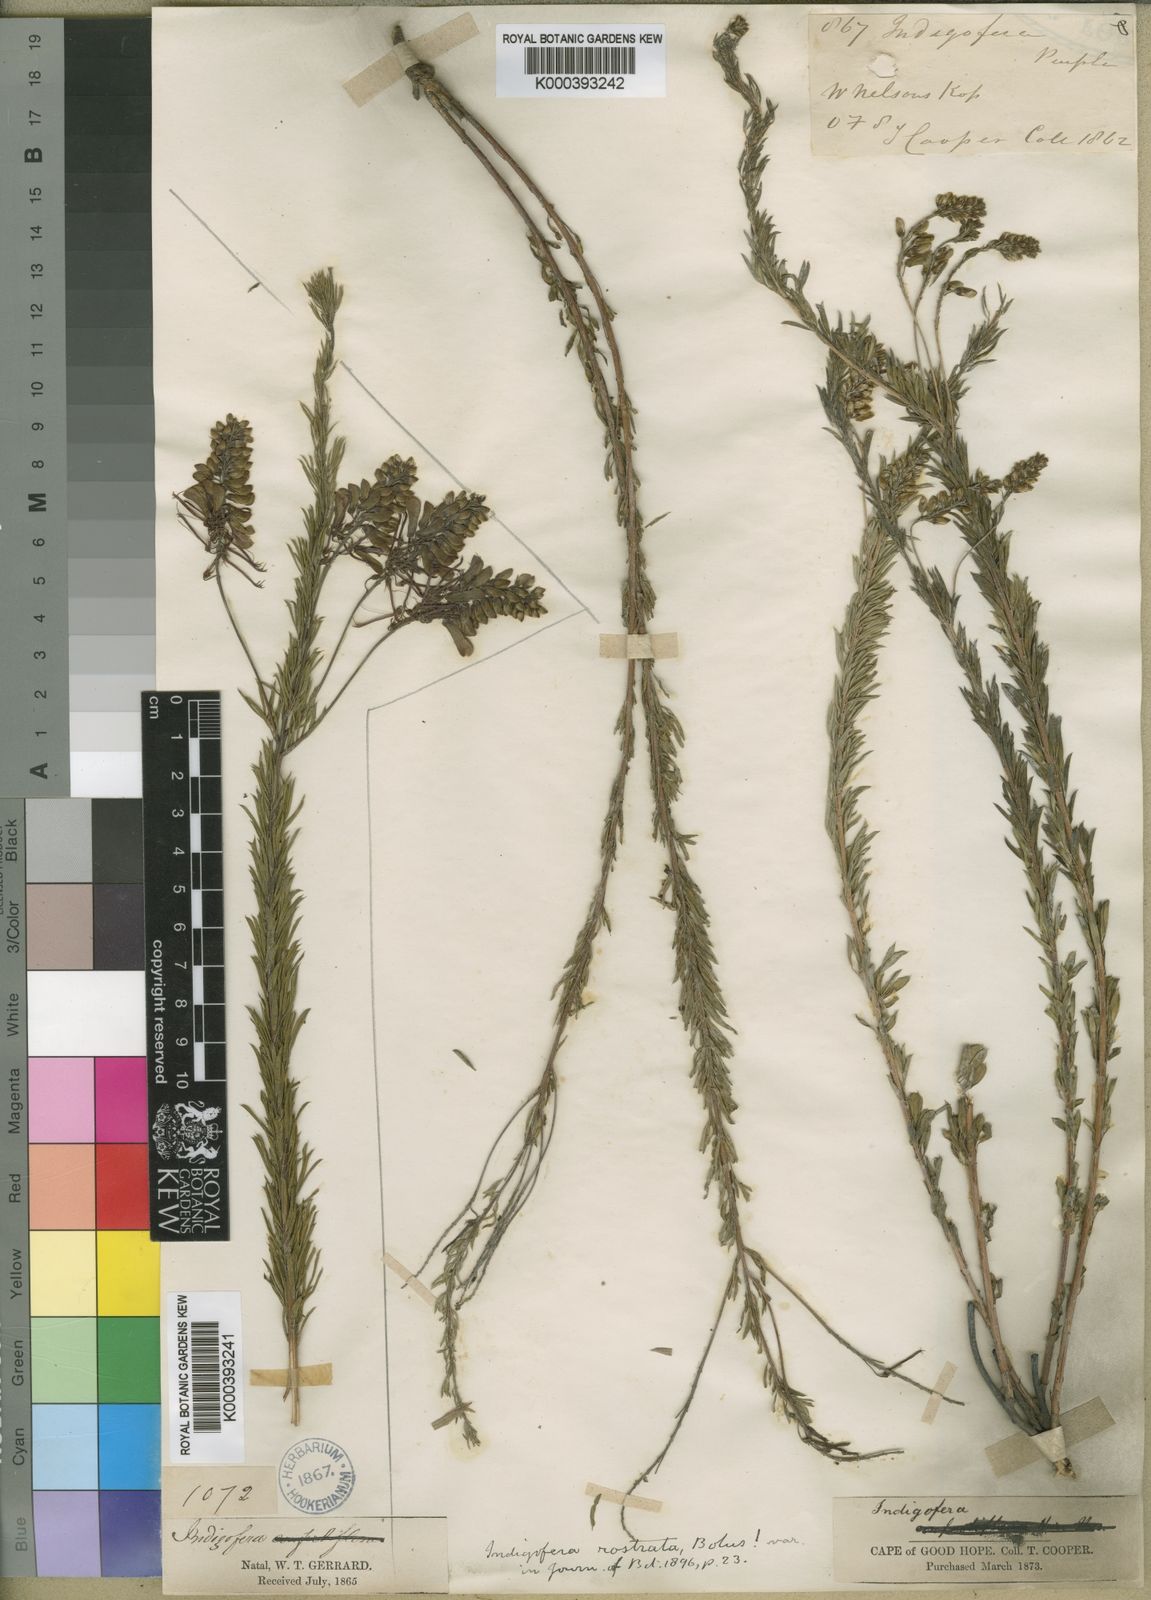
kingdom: Plantae
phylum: Tracheophyta
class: Magnoliopsida
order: Fabales
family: Fabaceae
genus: Indigofera
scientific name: Indigofera rostrata
